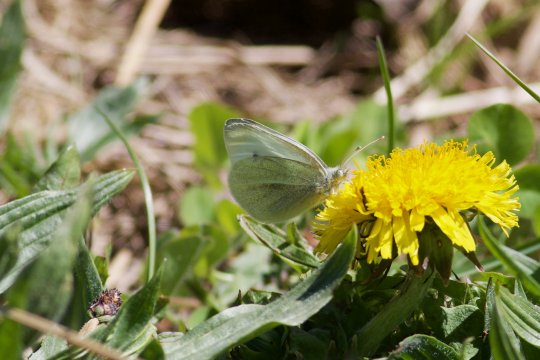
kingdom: Animalia
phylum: Arthropoda
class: Insecta
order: Lepidoptera
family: Pieridae
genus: Pieris
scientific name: Pieris rapae
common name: Cabbage White
